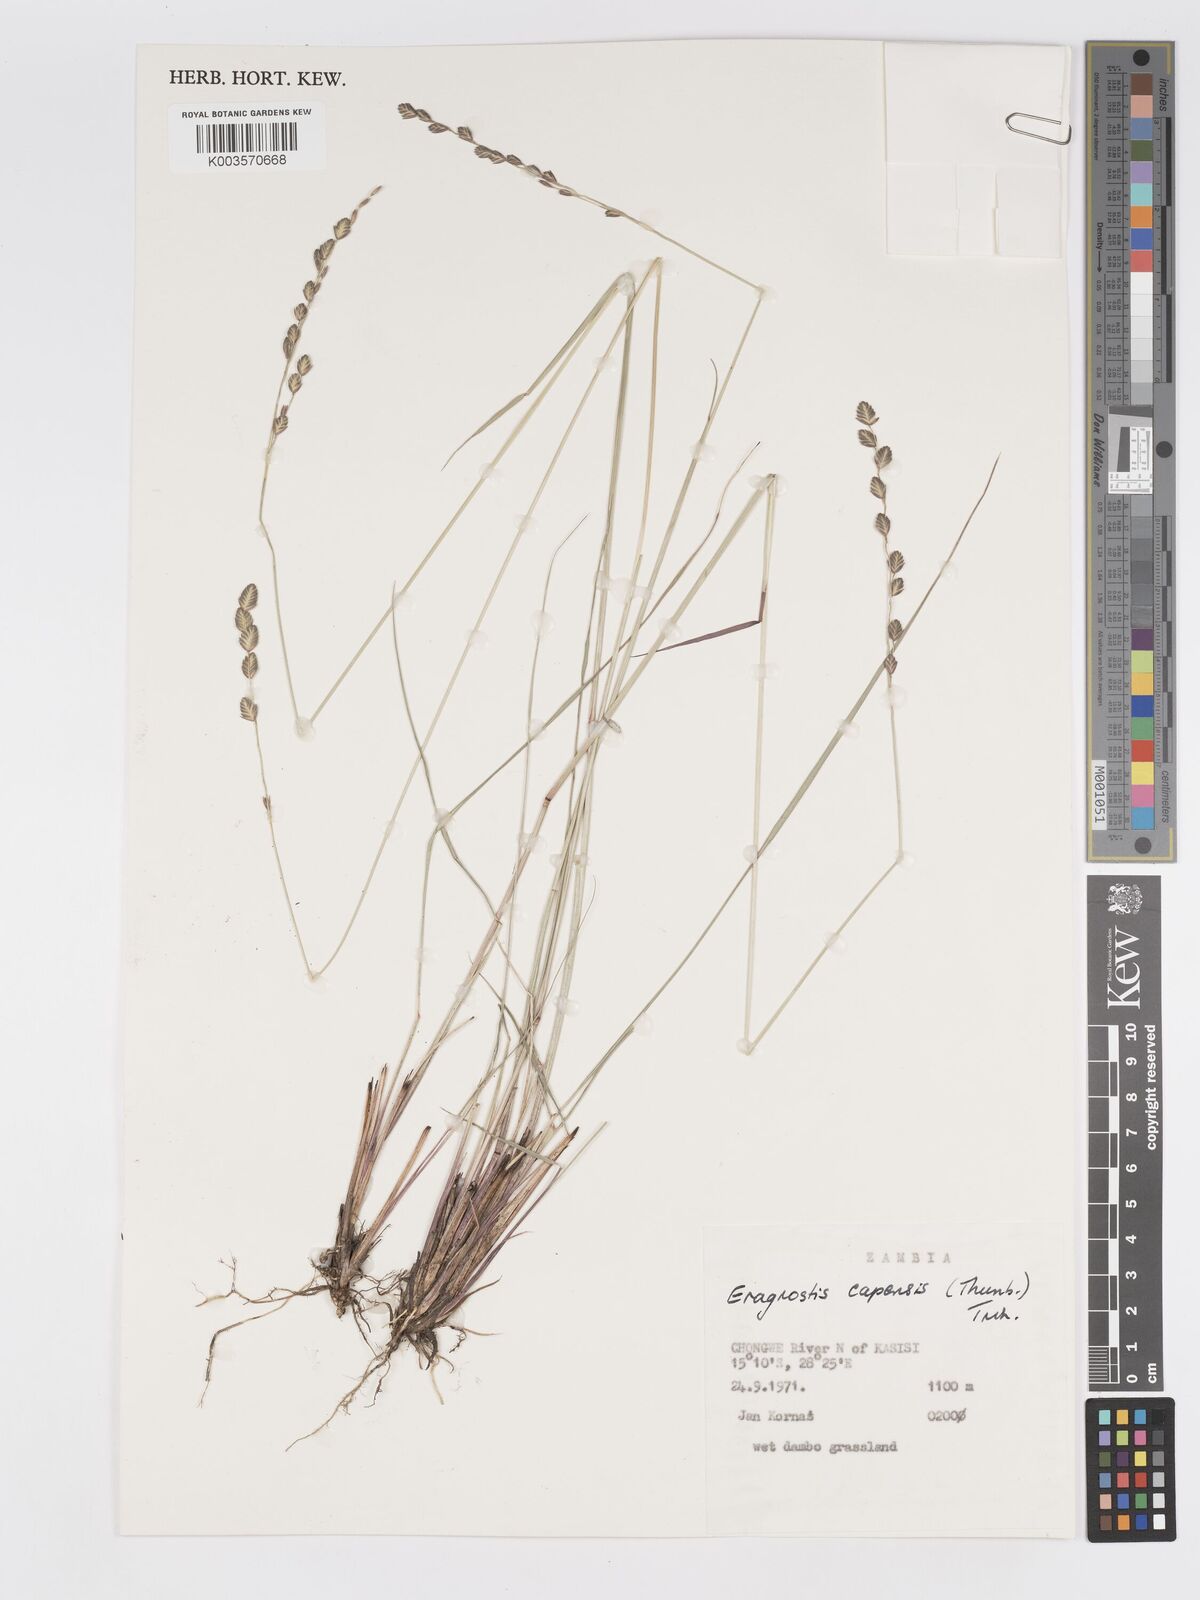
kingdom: Plantae
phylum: Tracheophyta
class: Liliopsida
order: Poales
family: Poaceae
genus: Eragrostis
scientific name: Eragrostis capensis
